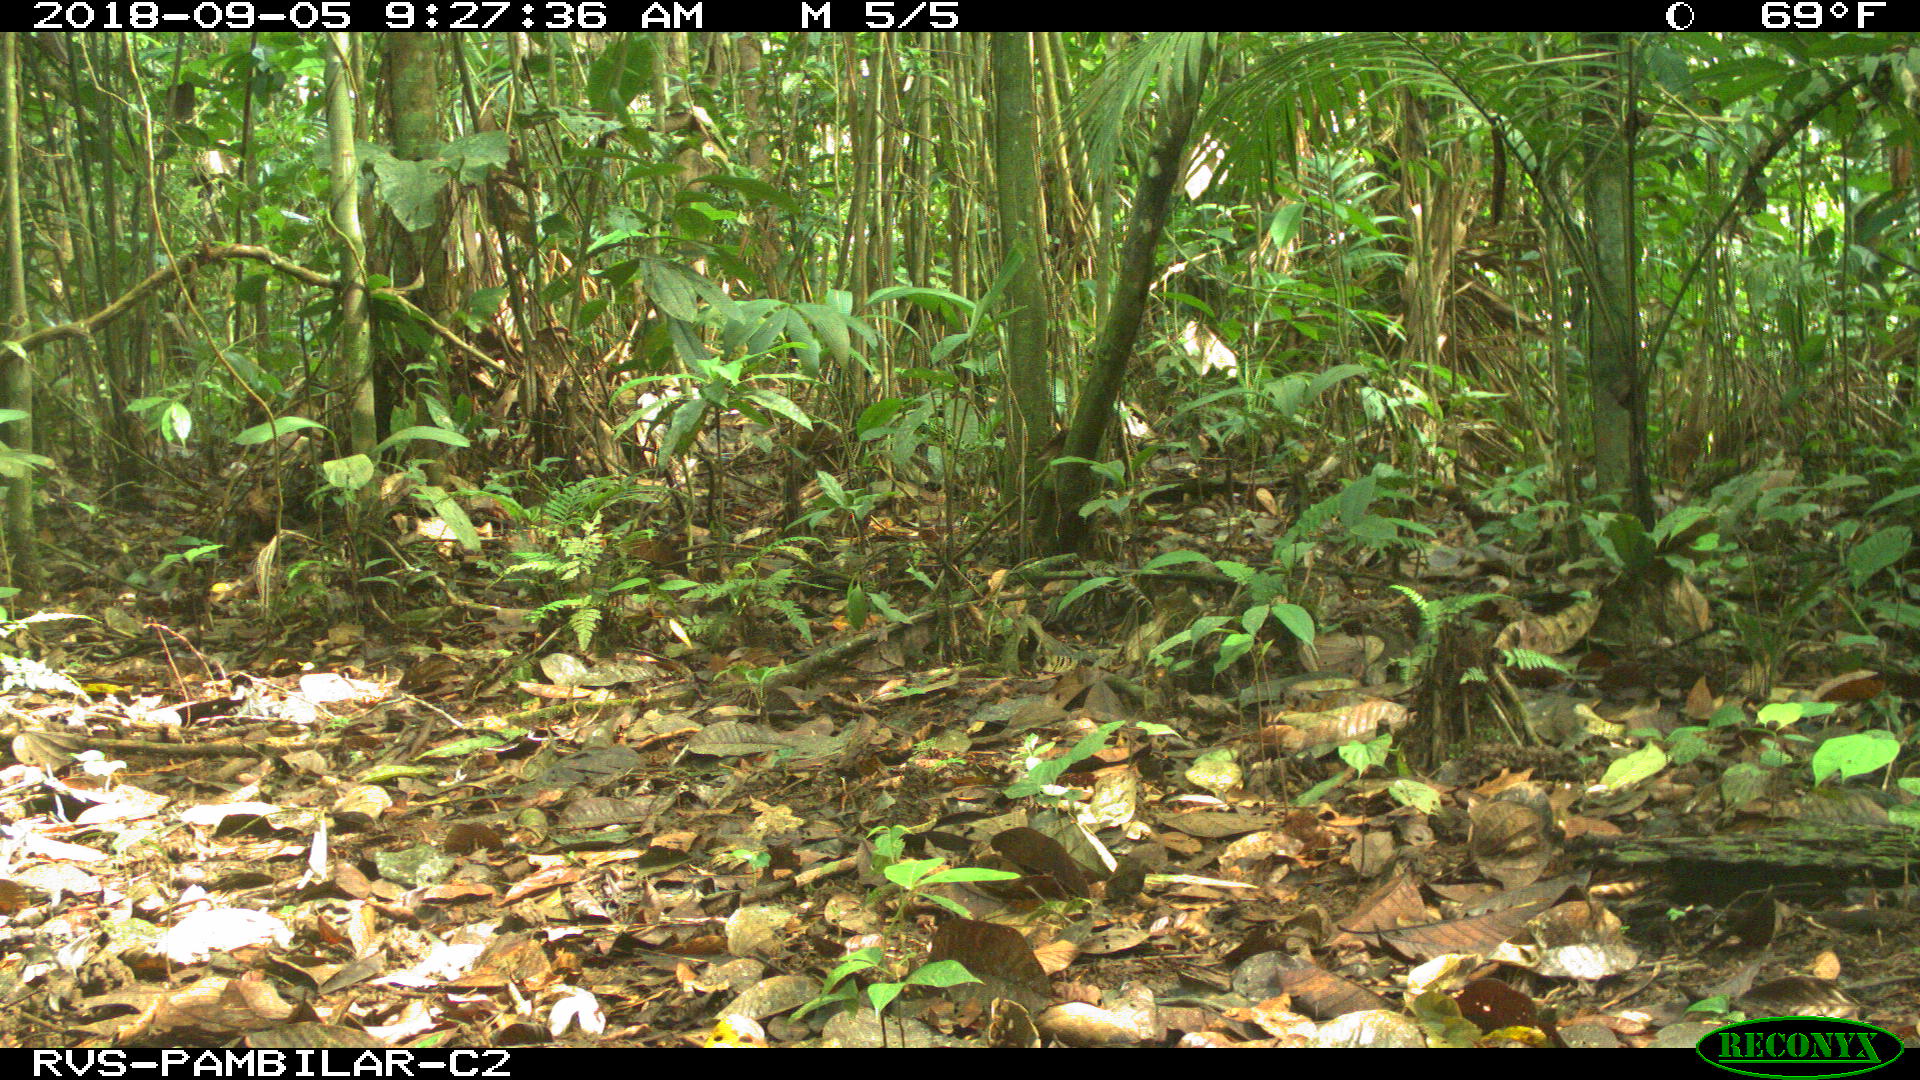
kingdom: Animalia
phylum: Chordata
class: Mammalia
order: Rodentia
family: Dasyproctidae
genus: Dasyprocta
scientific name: Dasyprocta punctata
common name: Central american agouti
